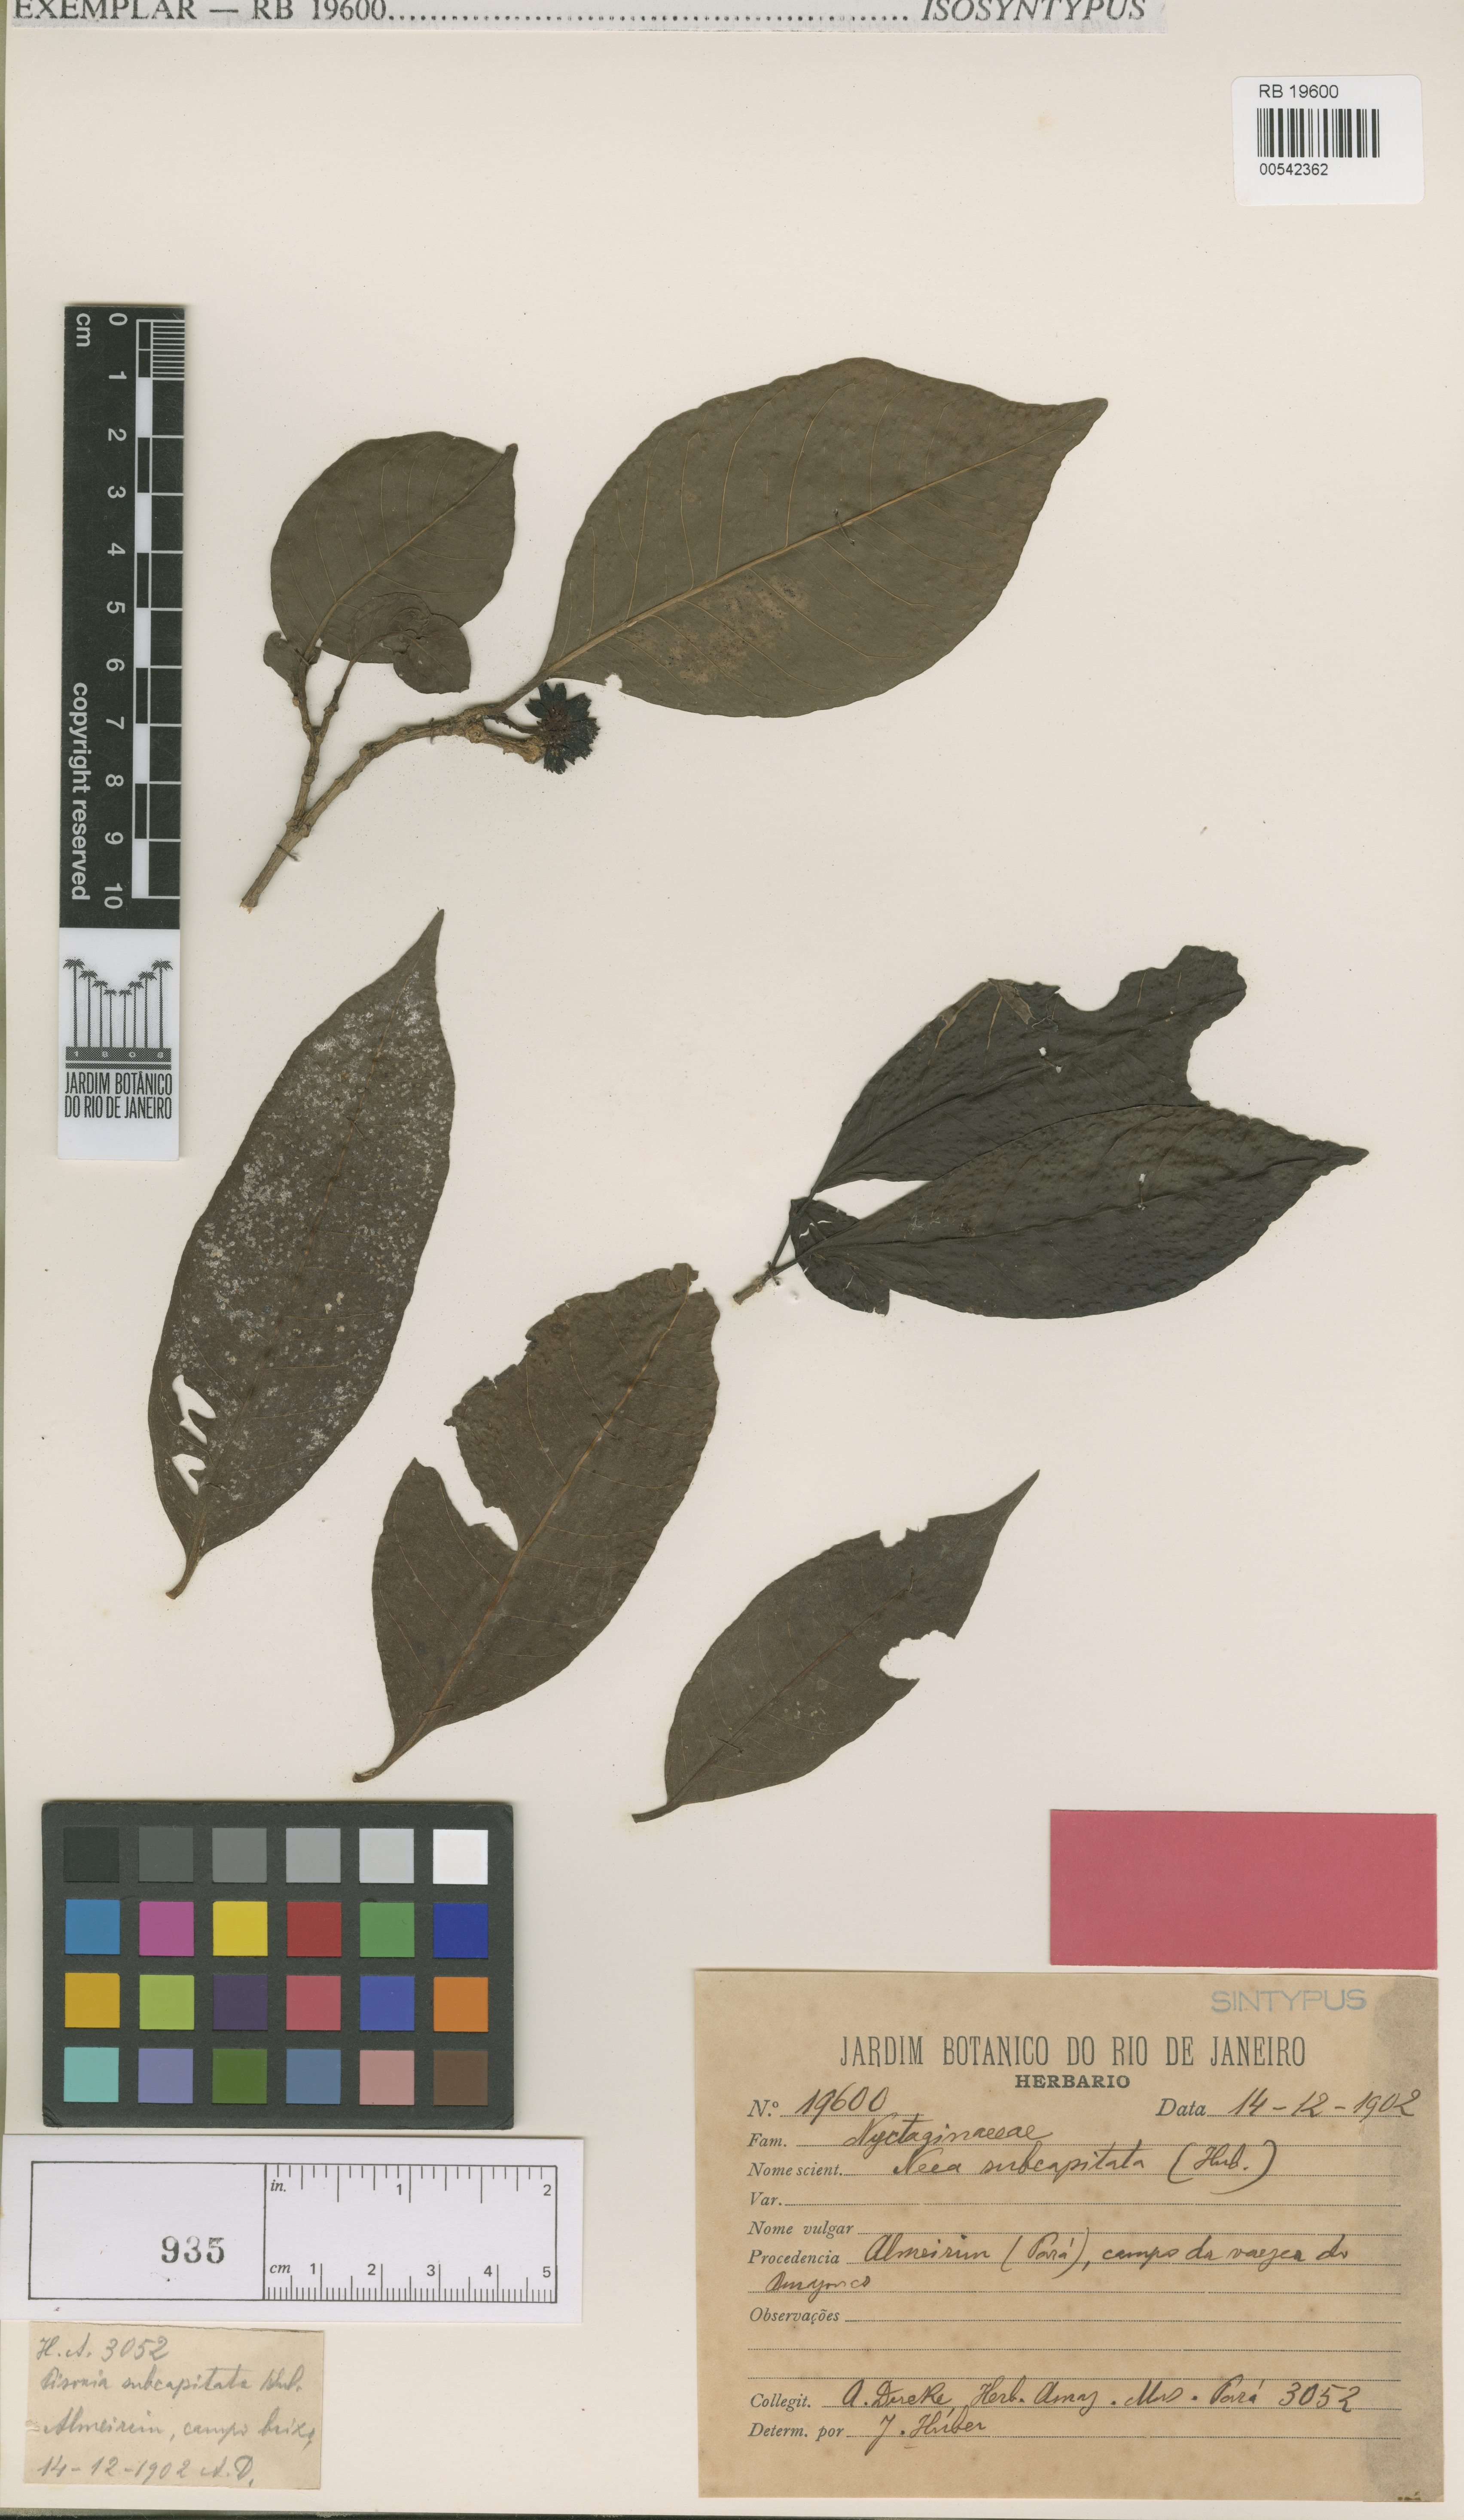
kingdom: Plantae
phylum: Tracheophyta
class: Magnoliopsida
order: Caryophyllales
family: Nyctaginaceae
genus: Neea
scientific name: Neea ovalifolia
